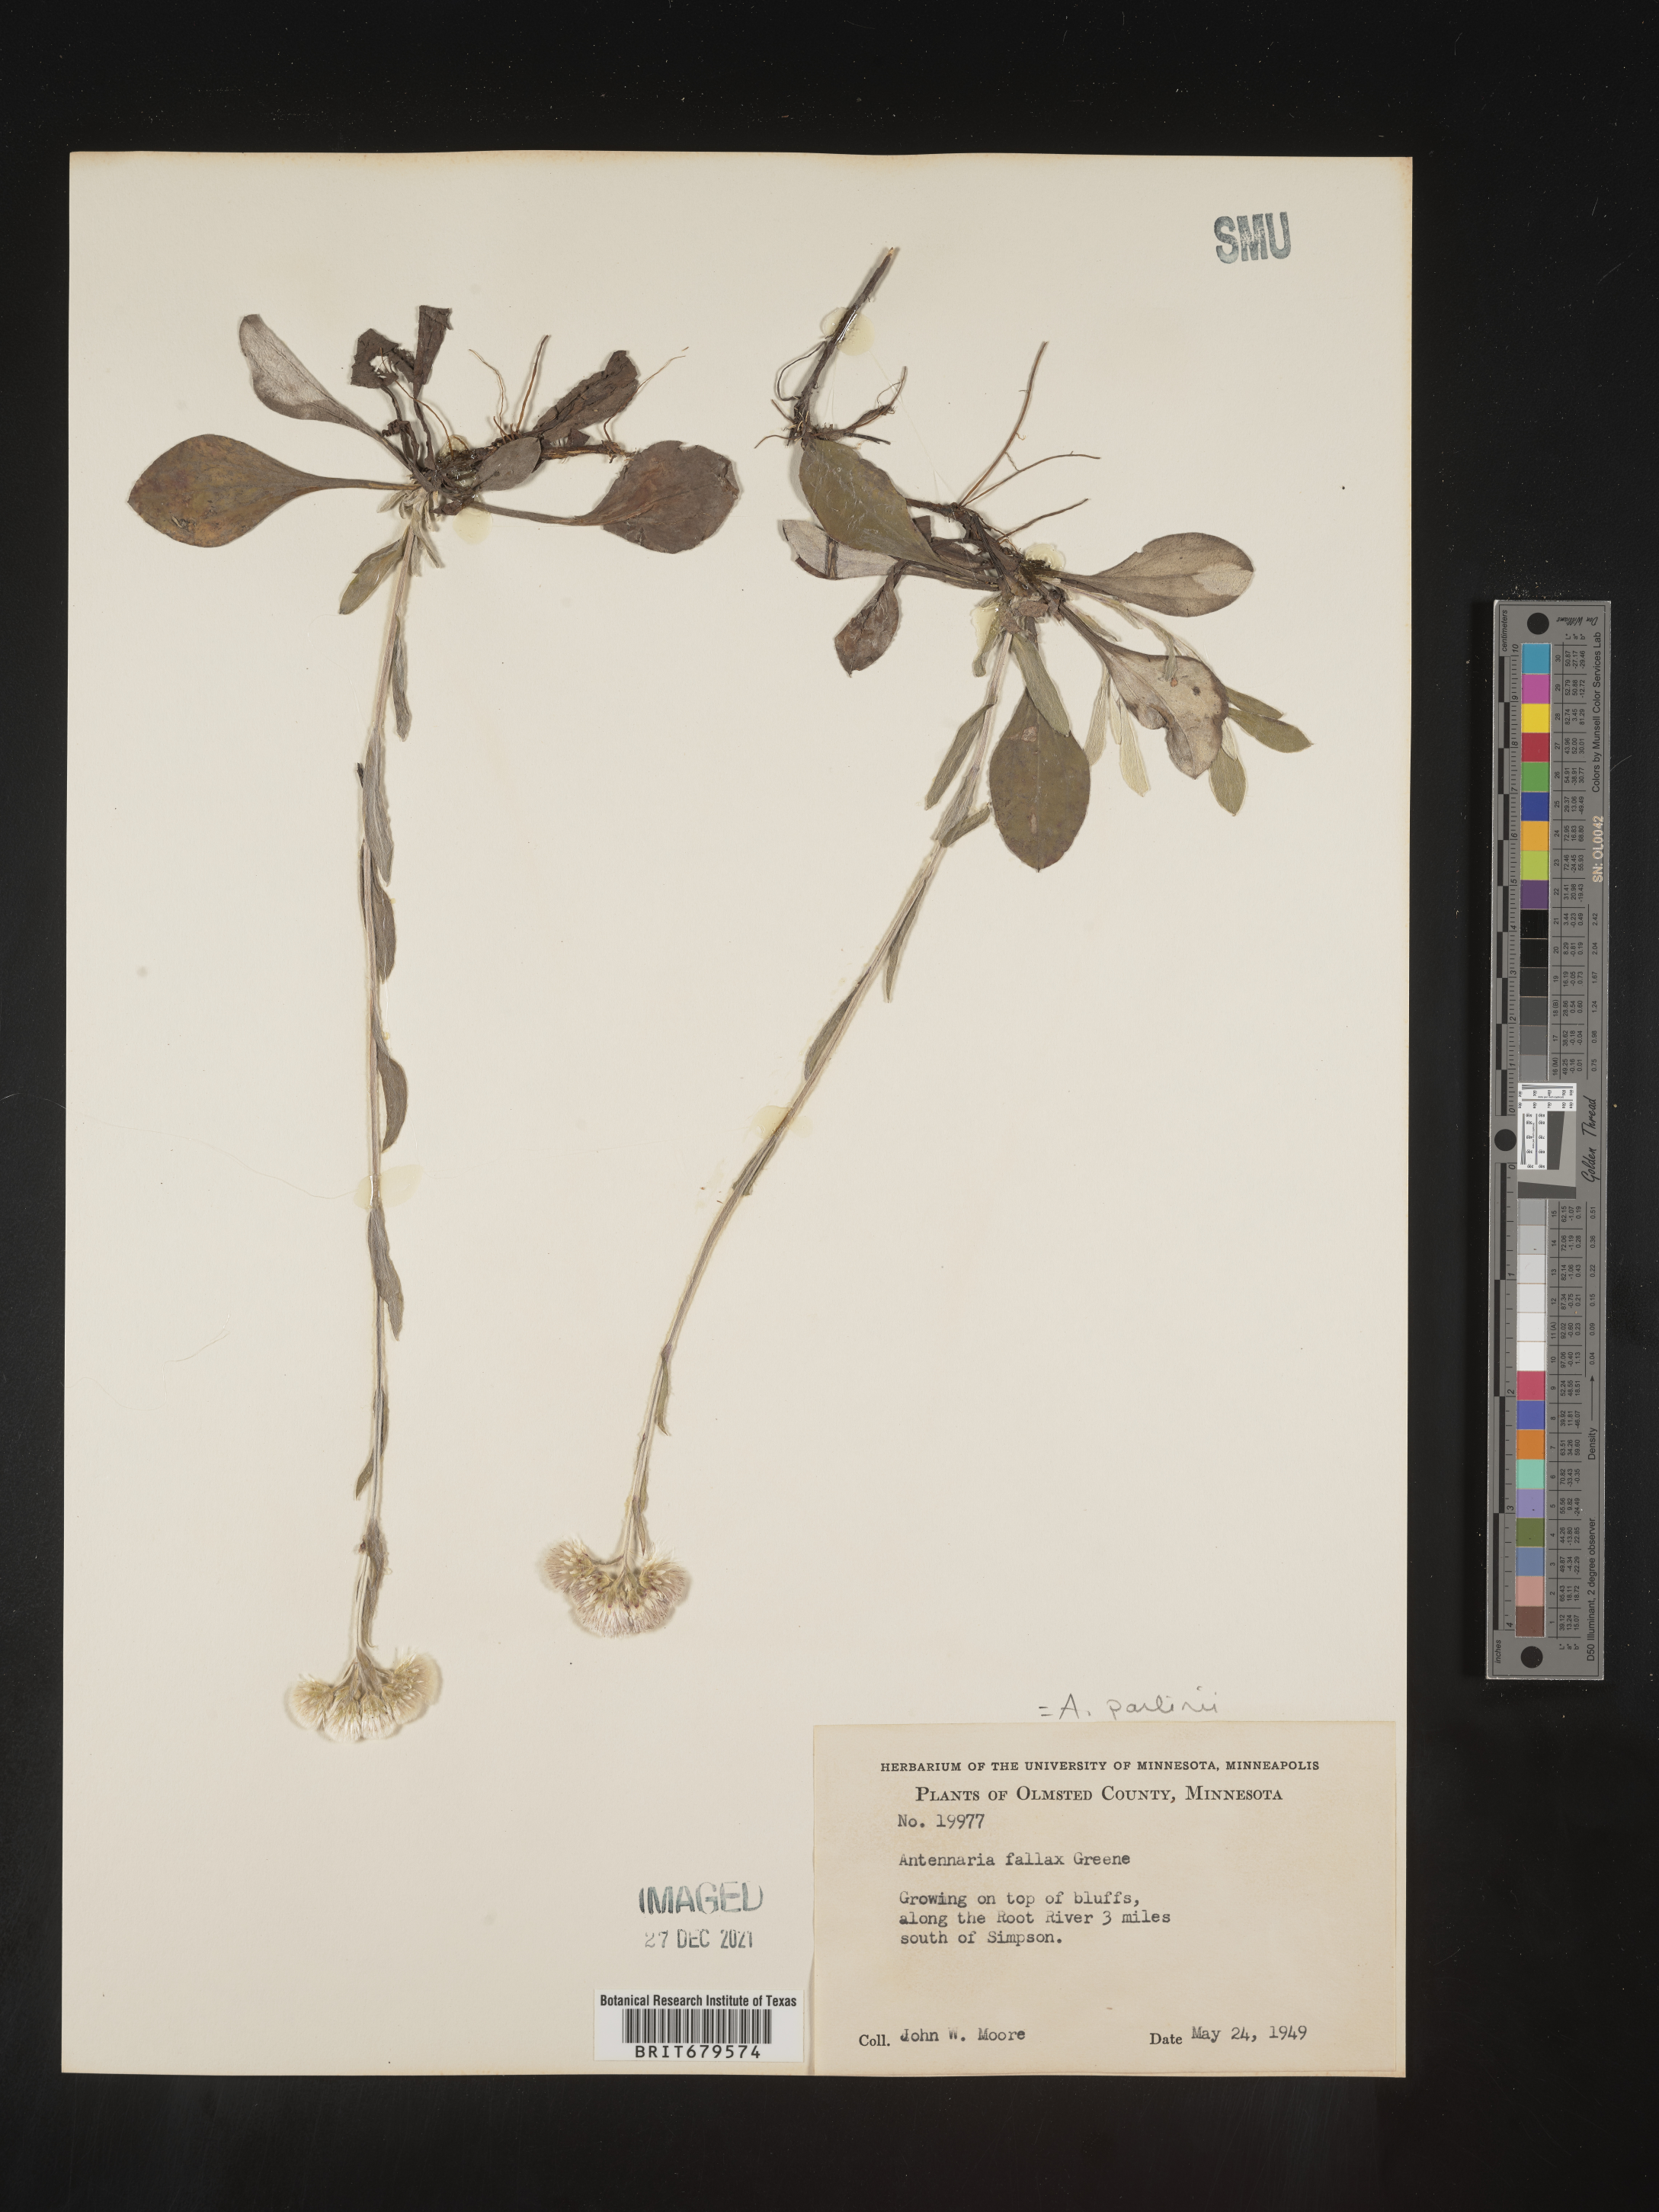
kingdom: Plantae
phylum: Tracheophyta
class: Magnoliopsida
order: Asterales
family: Asteraceae
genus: Antennaria
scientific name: Antennaria parlinii
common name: Parlin's pussytoes
